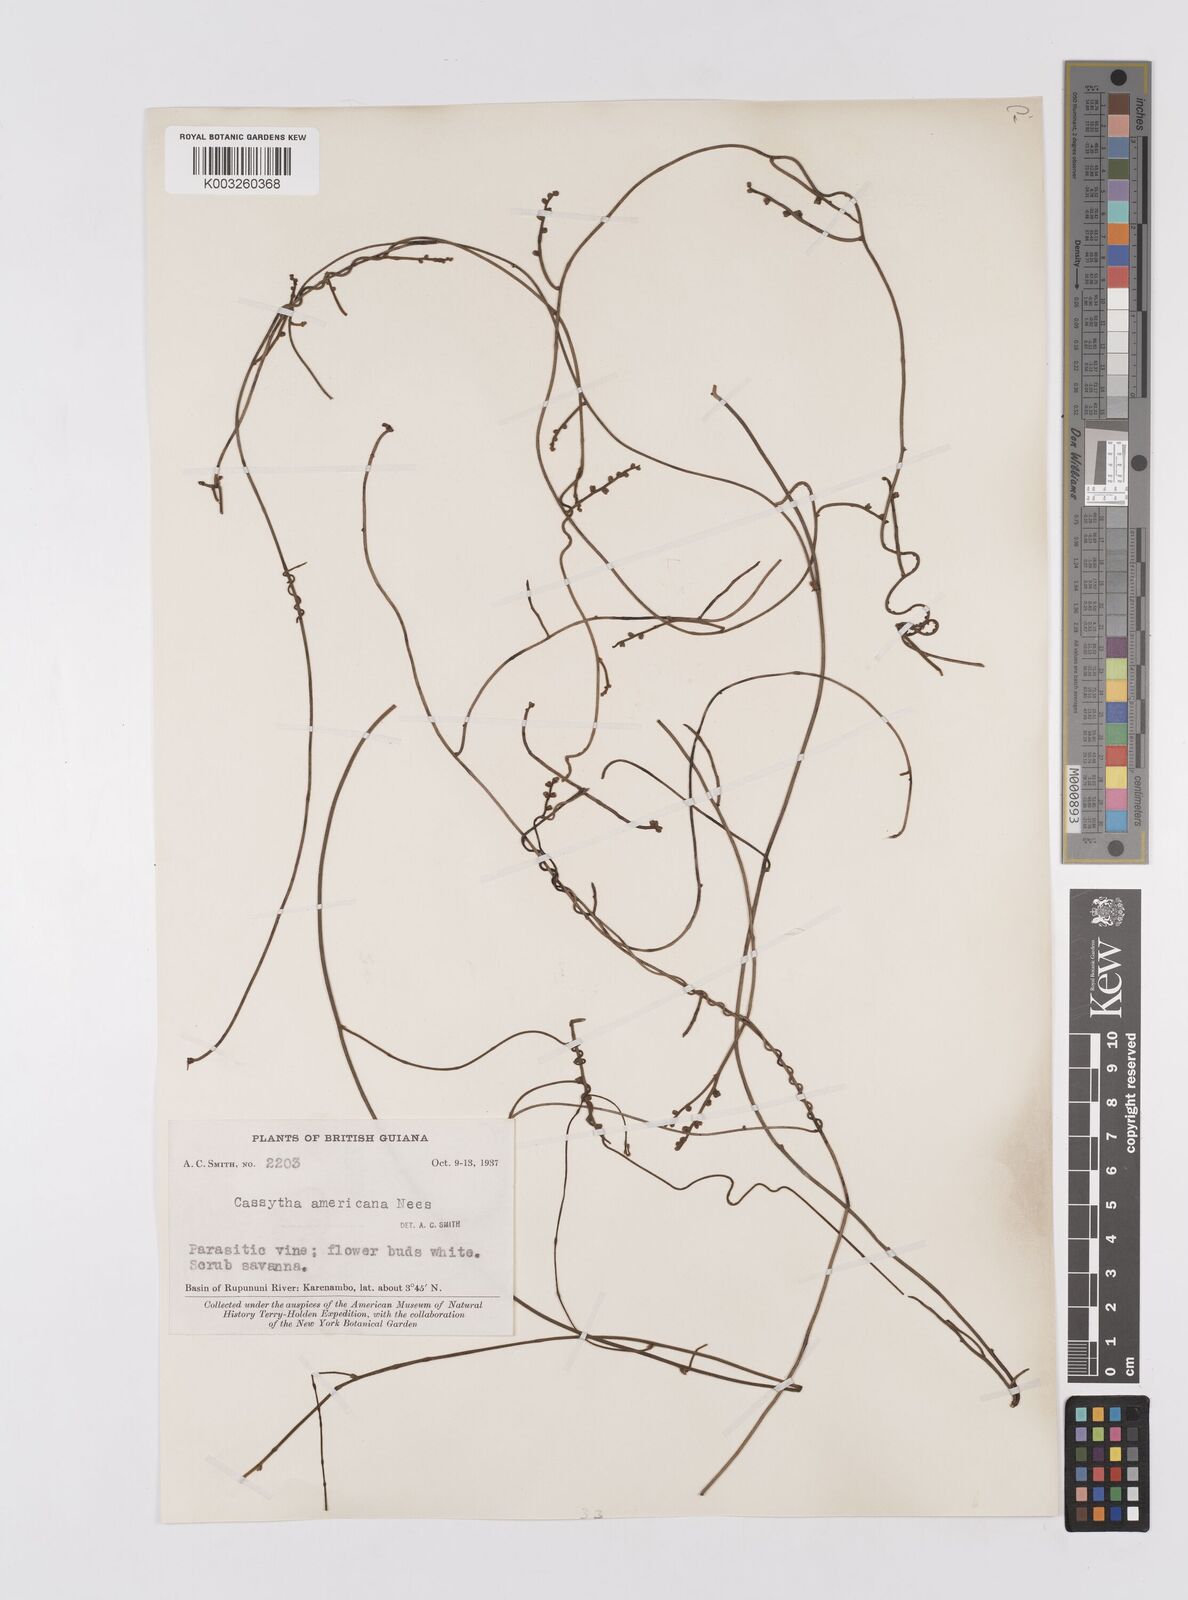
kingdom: Plantae
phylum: Tracheophyta
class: Magnoliopsida
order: Laurales
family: Lauraceae
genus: Cassytha
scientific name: Cassytha filiformis
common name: Dodder-laurel
